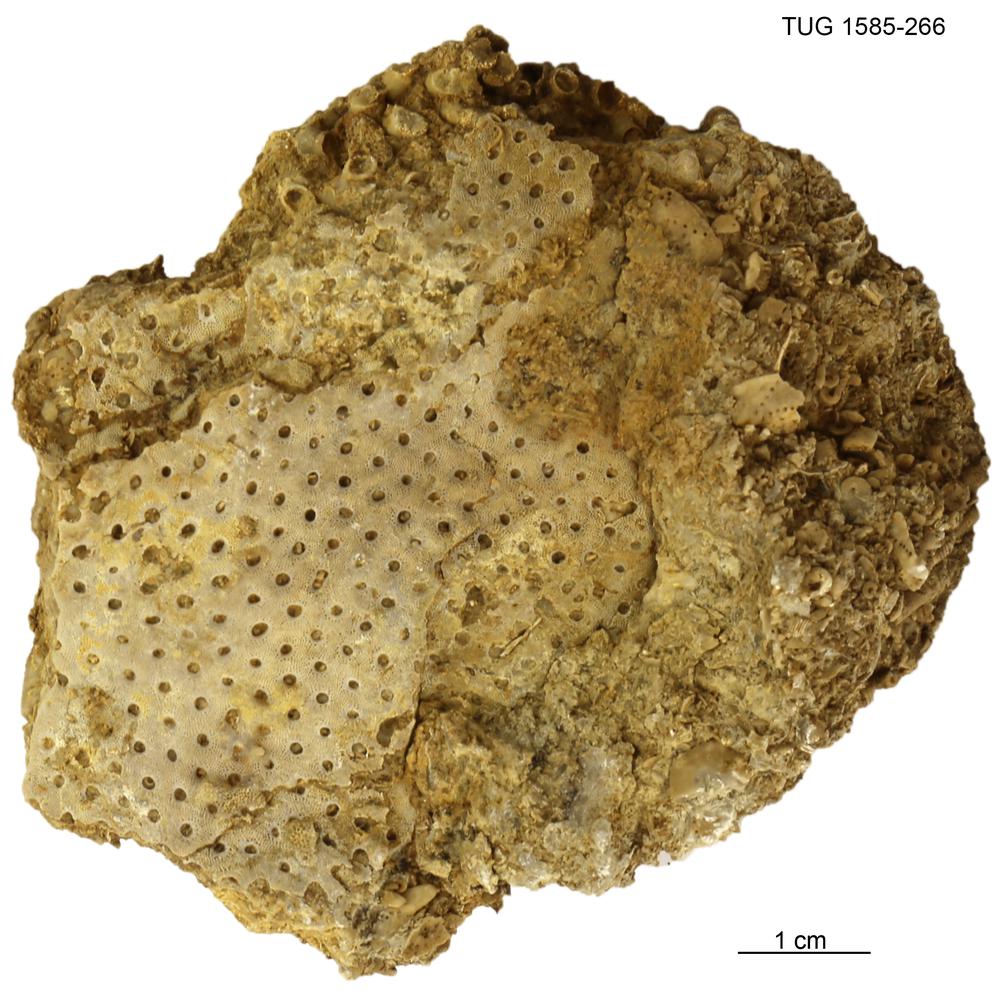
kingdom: Animalia
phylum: Bryozoa
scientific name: Bryozoa
